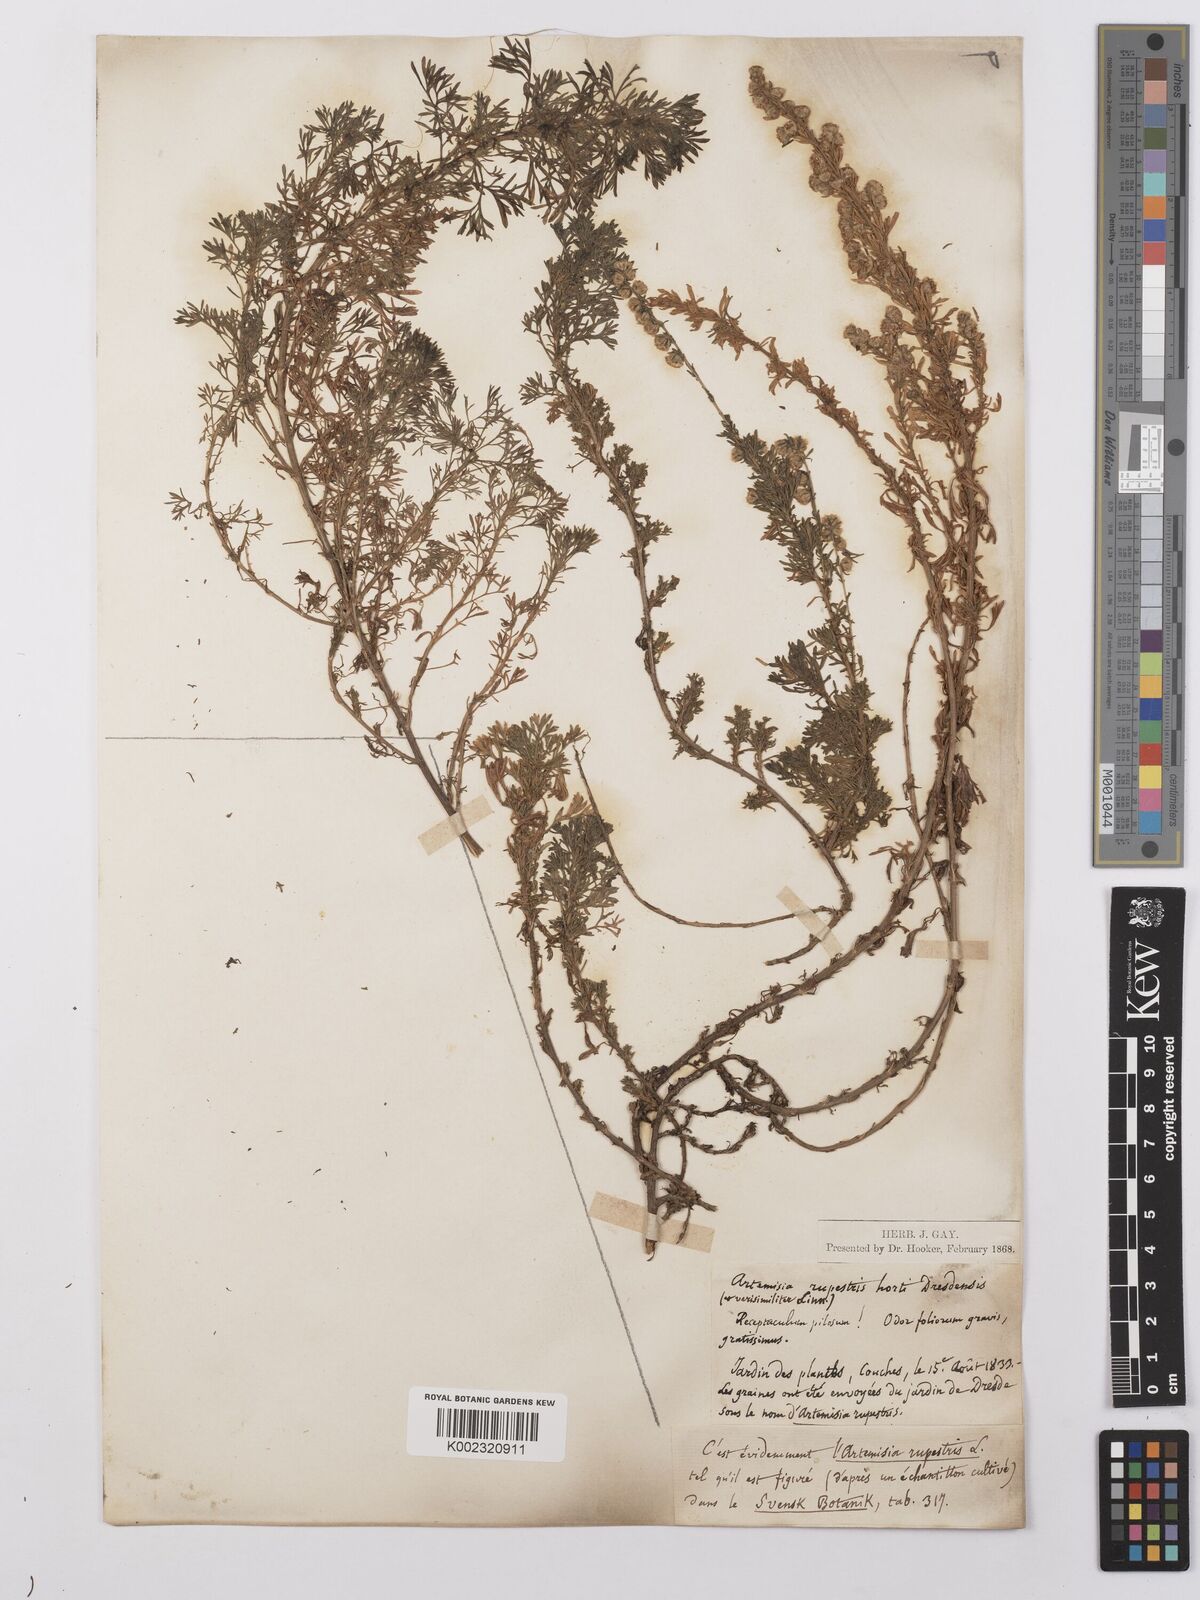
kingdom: Plantae
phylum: Tracheophyta
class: Magnoliopsida
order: Asterales
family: Asteraceae
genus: Artemisia
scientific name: Artemisia rupestris
